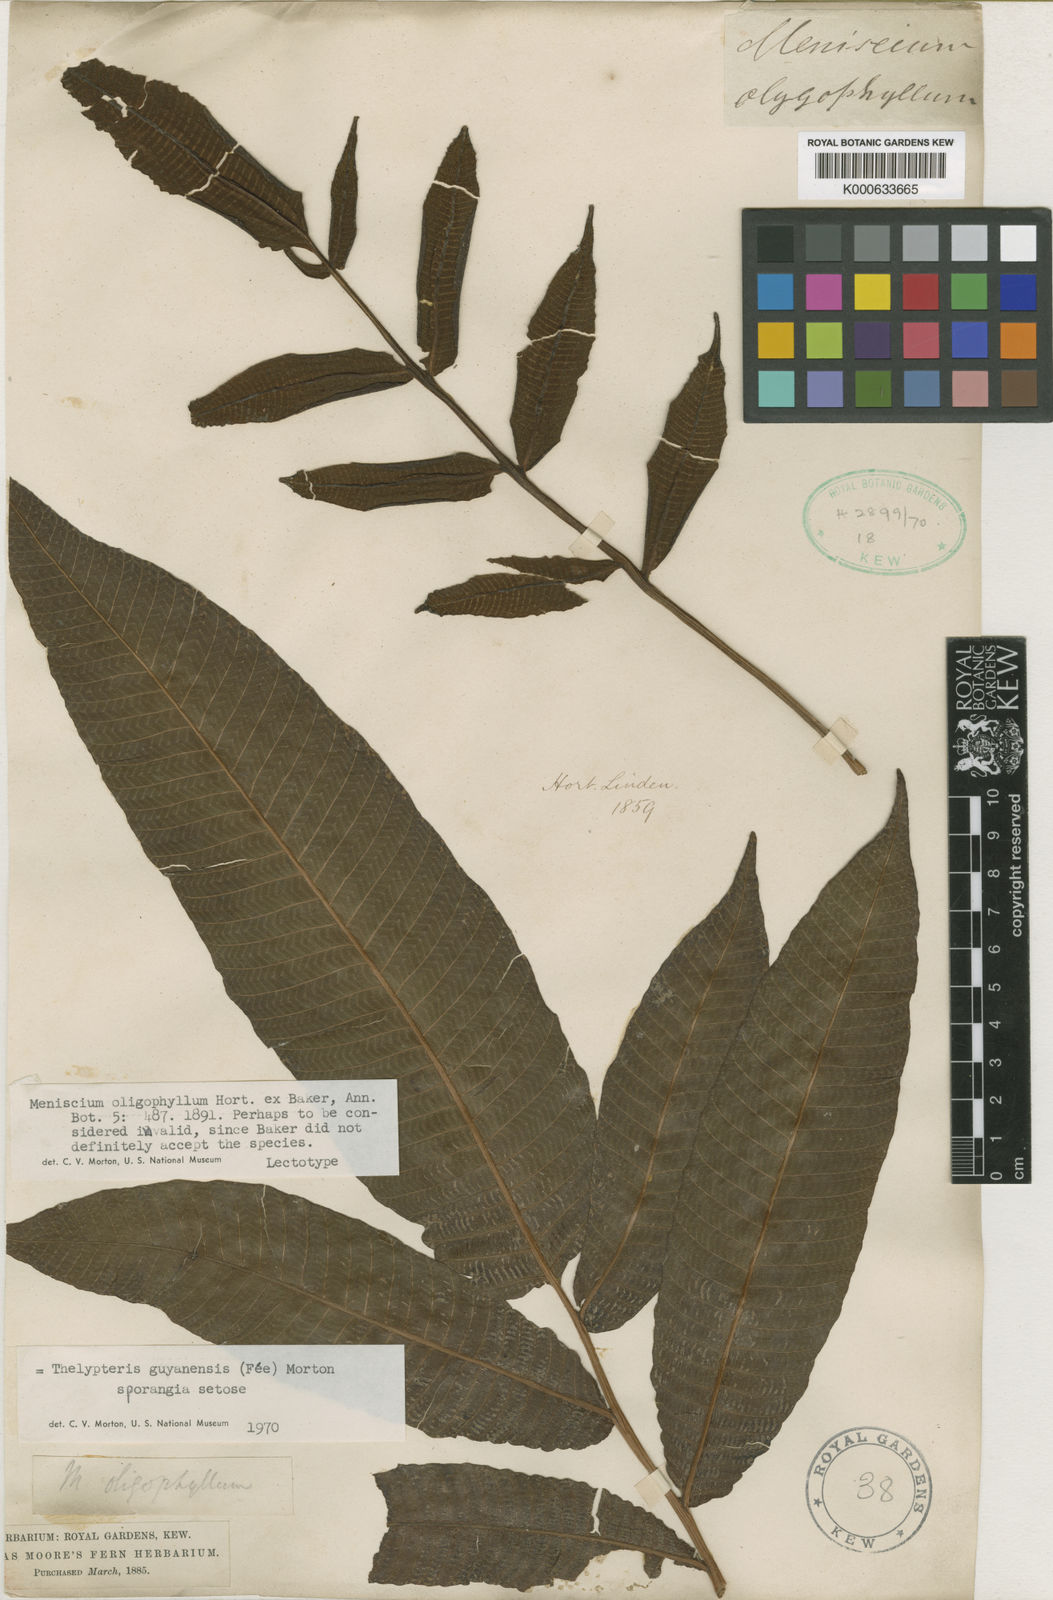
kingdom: Plantae
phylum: Tracheophyta
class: Polypodiopsida
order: Polypodiales
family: Thelypteridaceae
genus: Meniscium
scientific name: Meniscium macrophyllum
